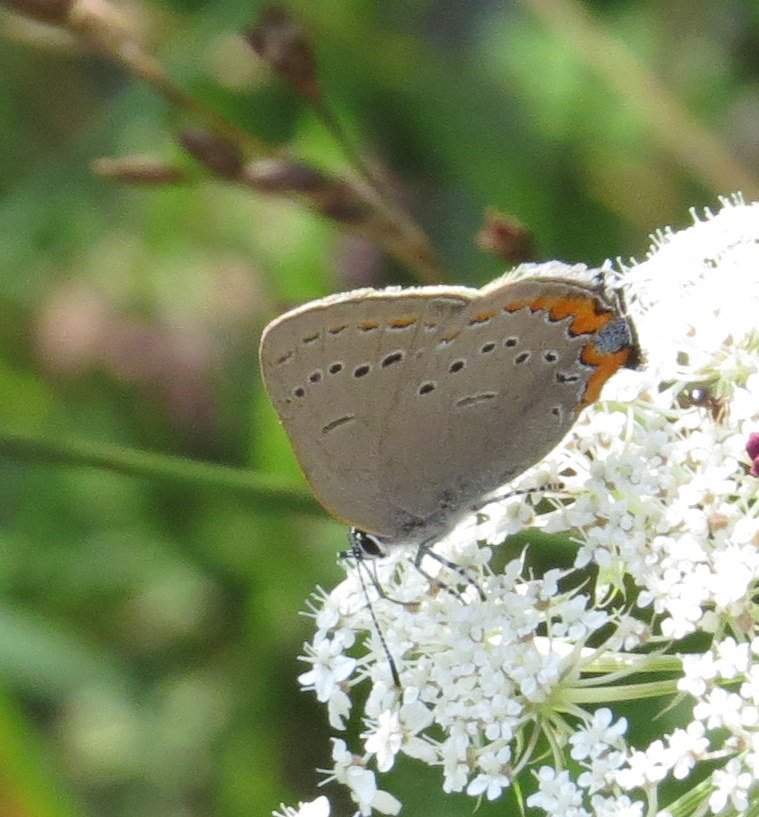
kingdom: Animalia
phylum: Arthropoda
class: Insecta
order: Lepidoptera
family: Lycaenidae
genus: Strymon
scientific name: Strymon acadica
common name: Acadian Hairstreak
